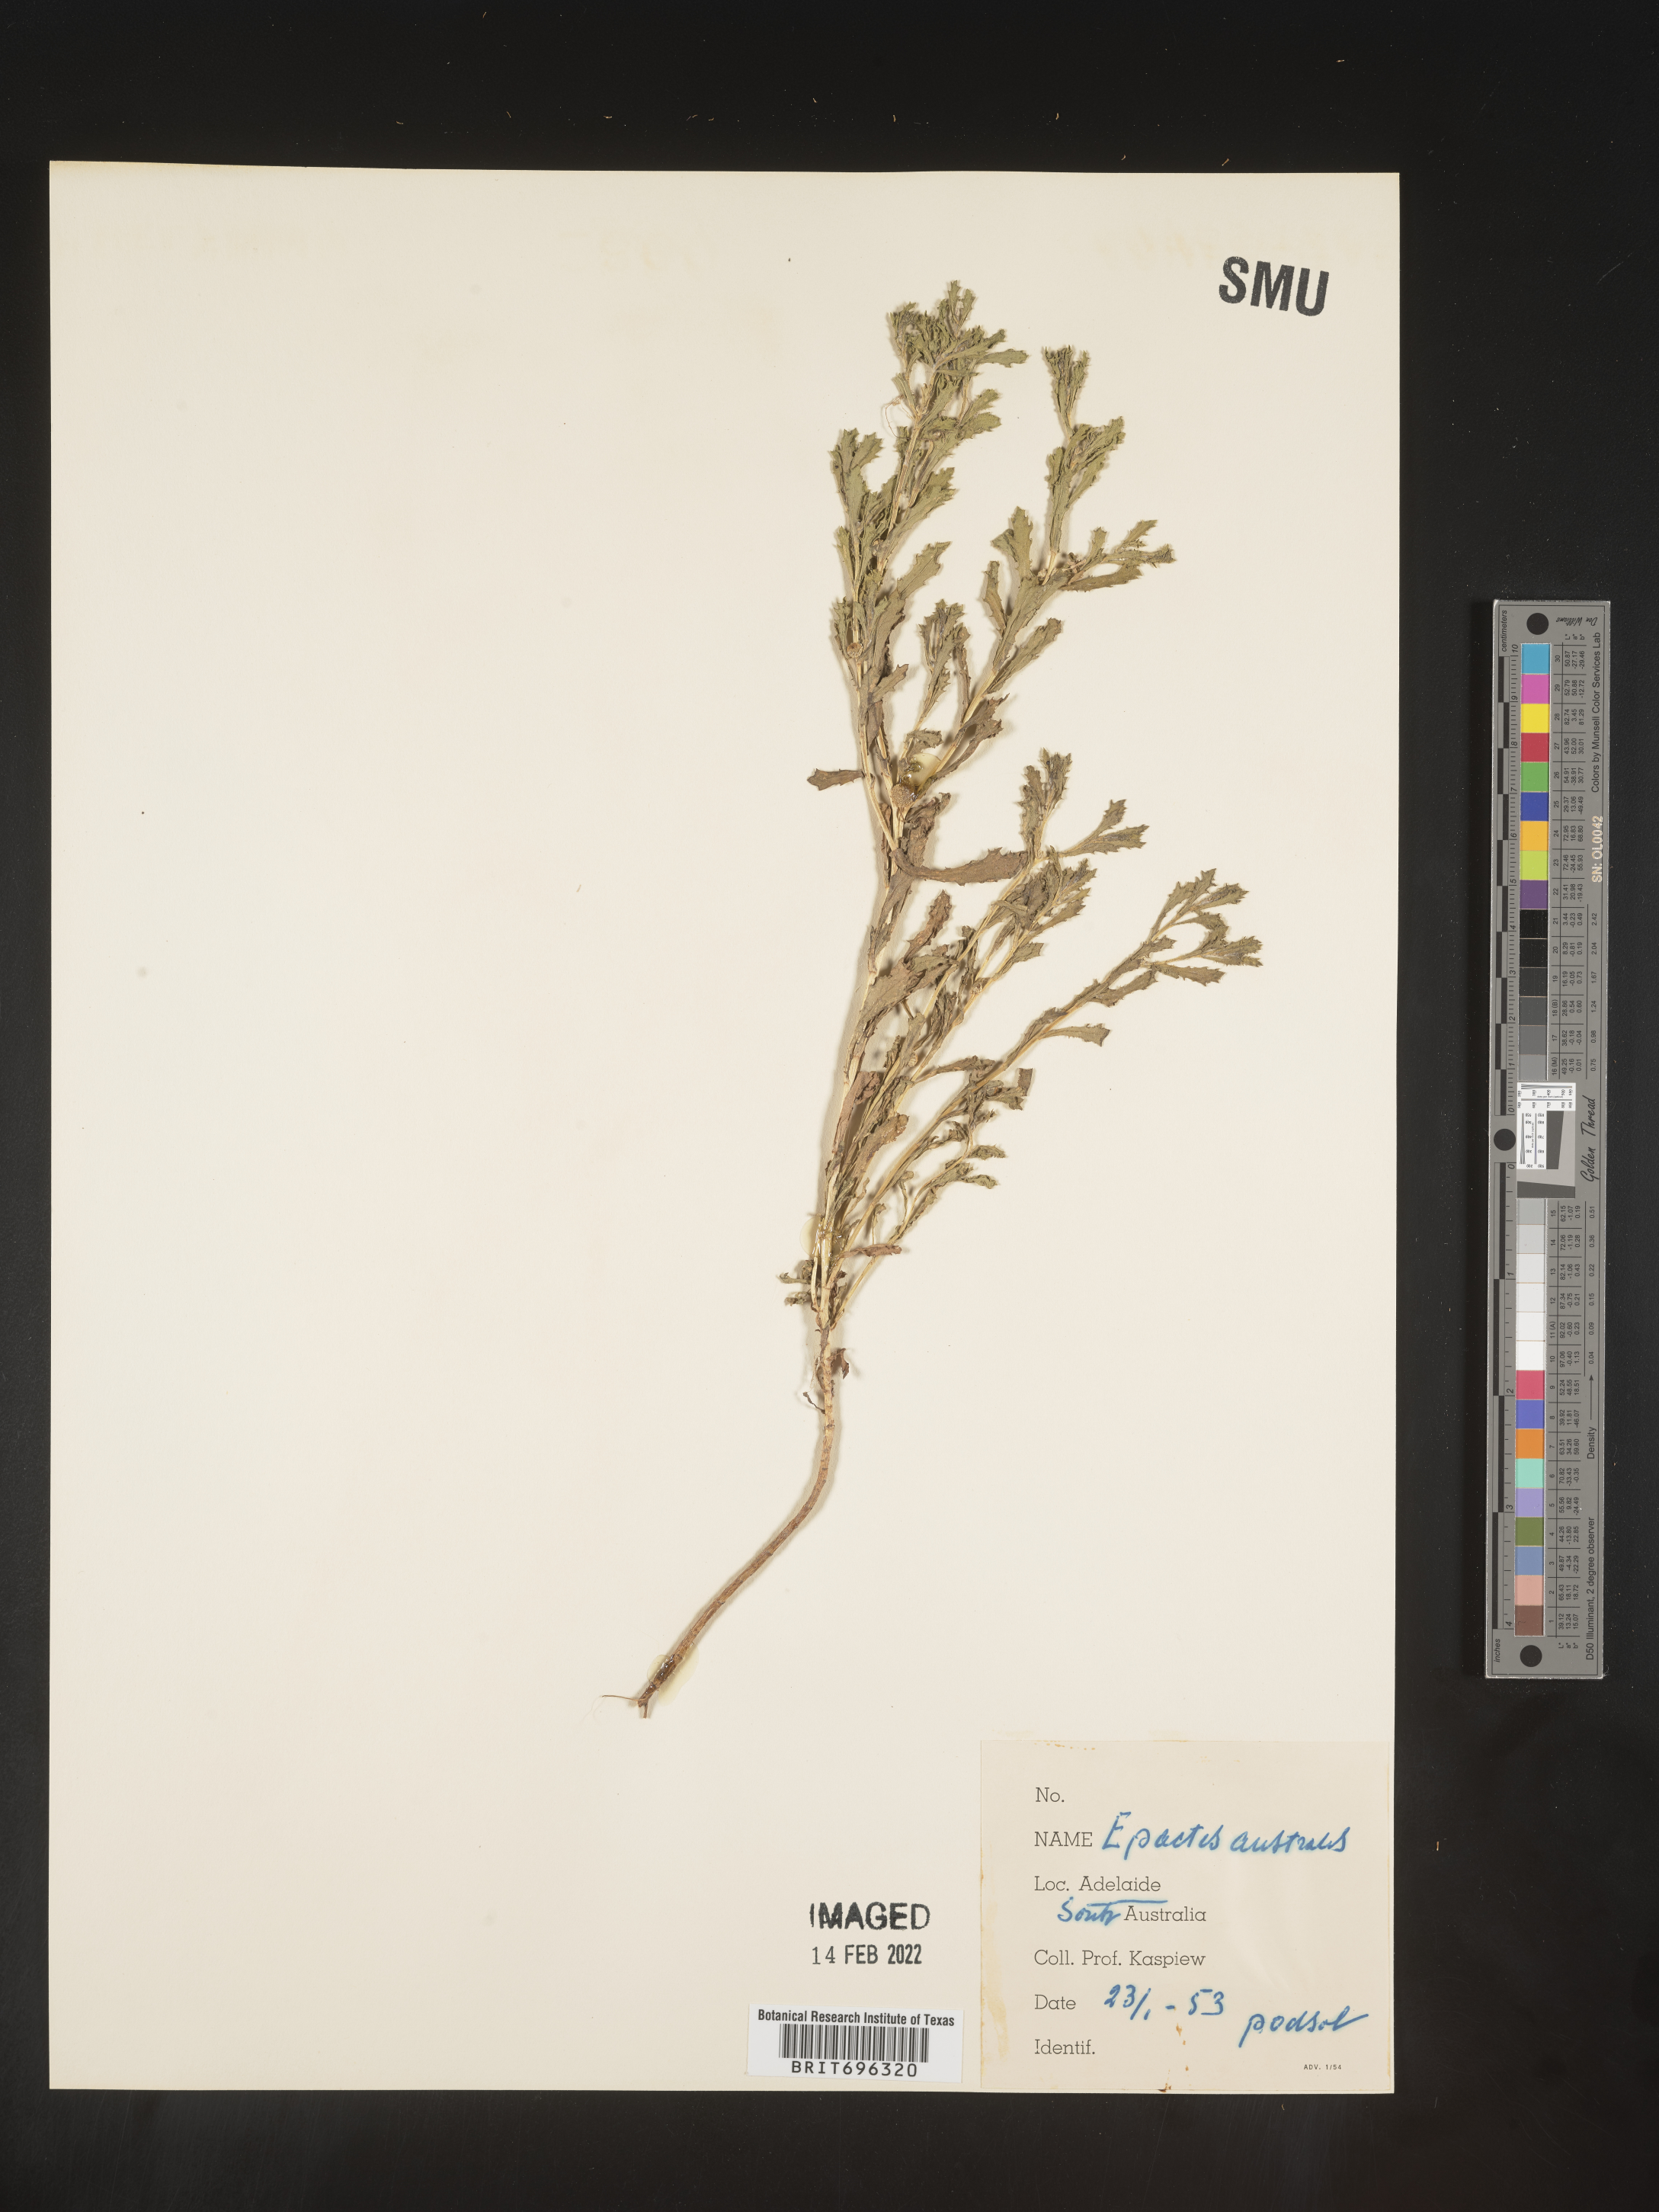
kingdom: Plantae
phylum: Tracheophyta
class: Magnoliopsida
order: Asterales
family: Asteraceae
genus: Epaltes
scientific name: Epaltes
